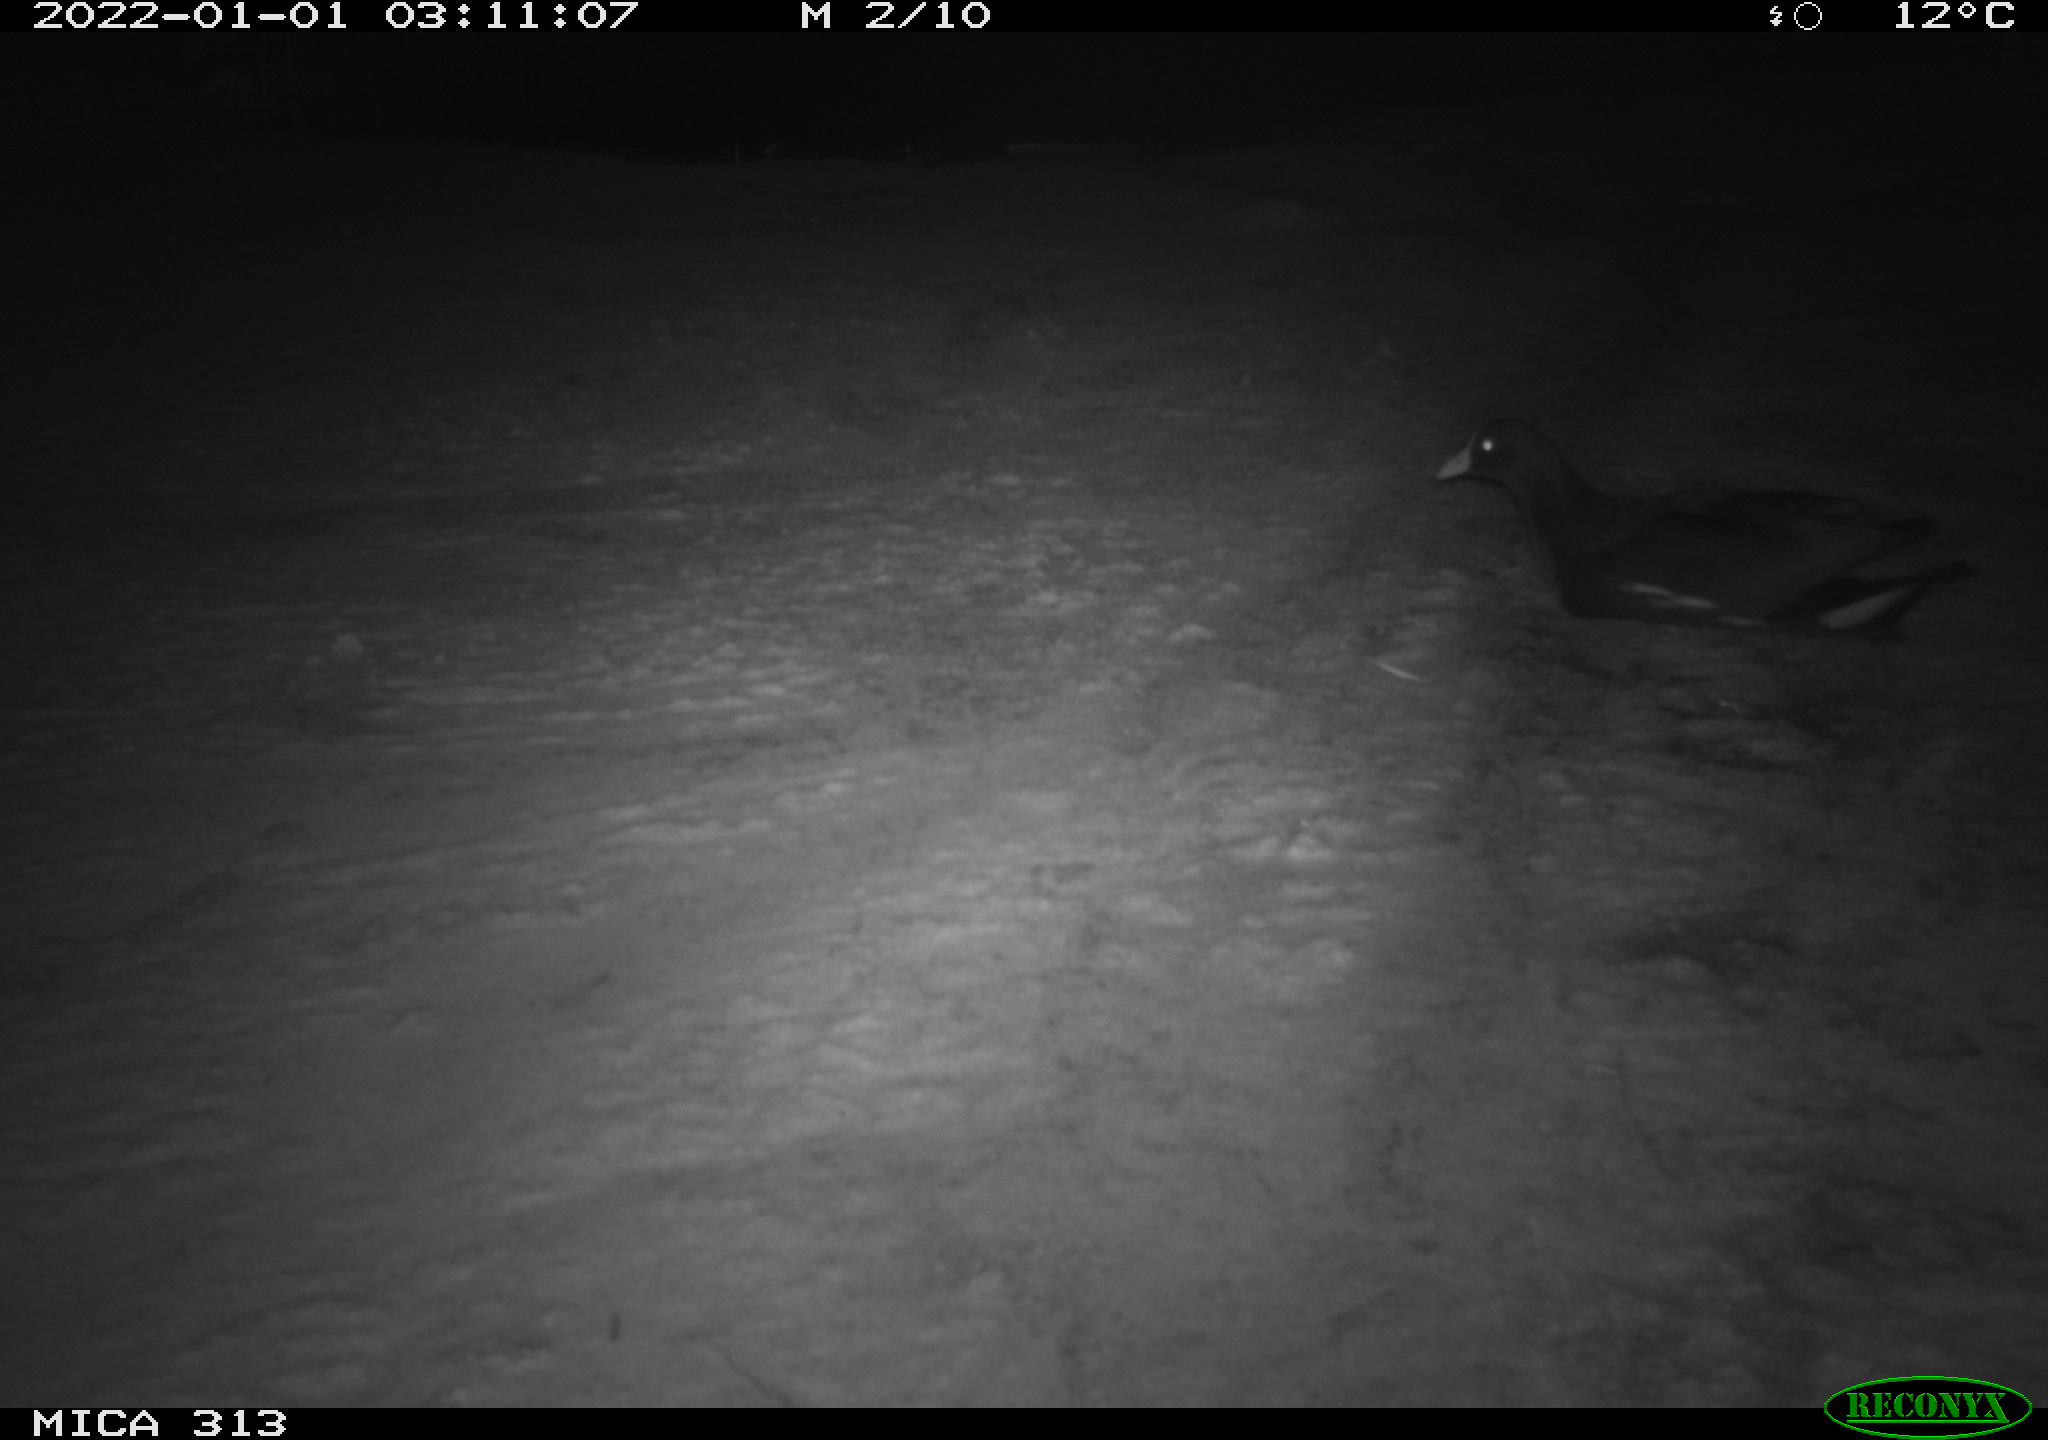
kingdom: Animalia
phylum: Chordata
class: Aves
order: Gruiformes
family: Rallidae
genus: Gallinula
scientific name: Gallinula chloropus
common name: Common moorhen
